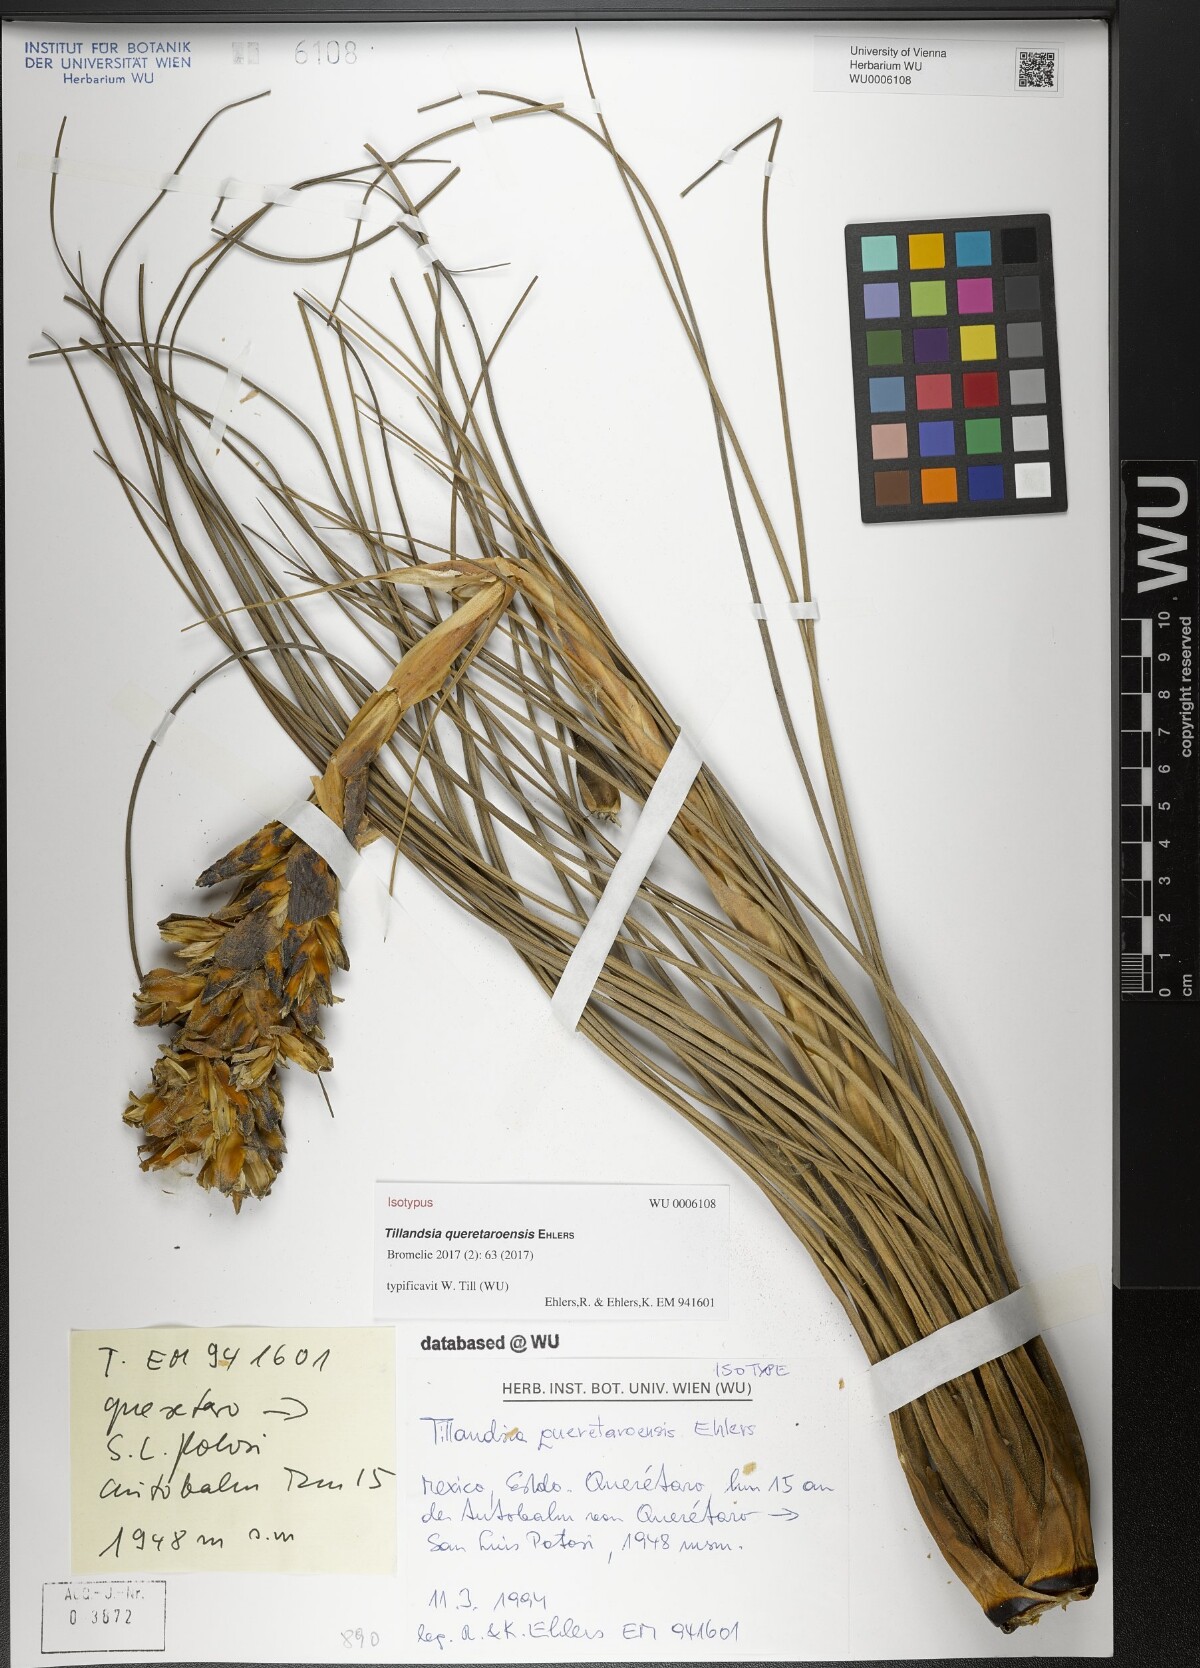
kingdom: Plantae
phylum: Tracheophyta
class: Liliopsida
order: Poales
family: Bromeliaceae
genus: Tillandsia
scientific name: Tillandsia queretaroensis
